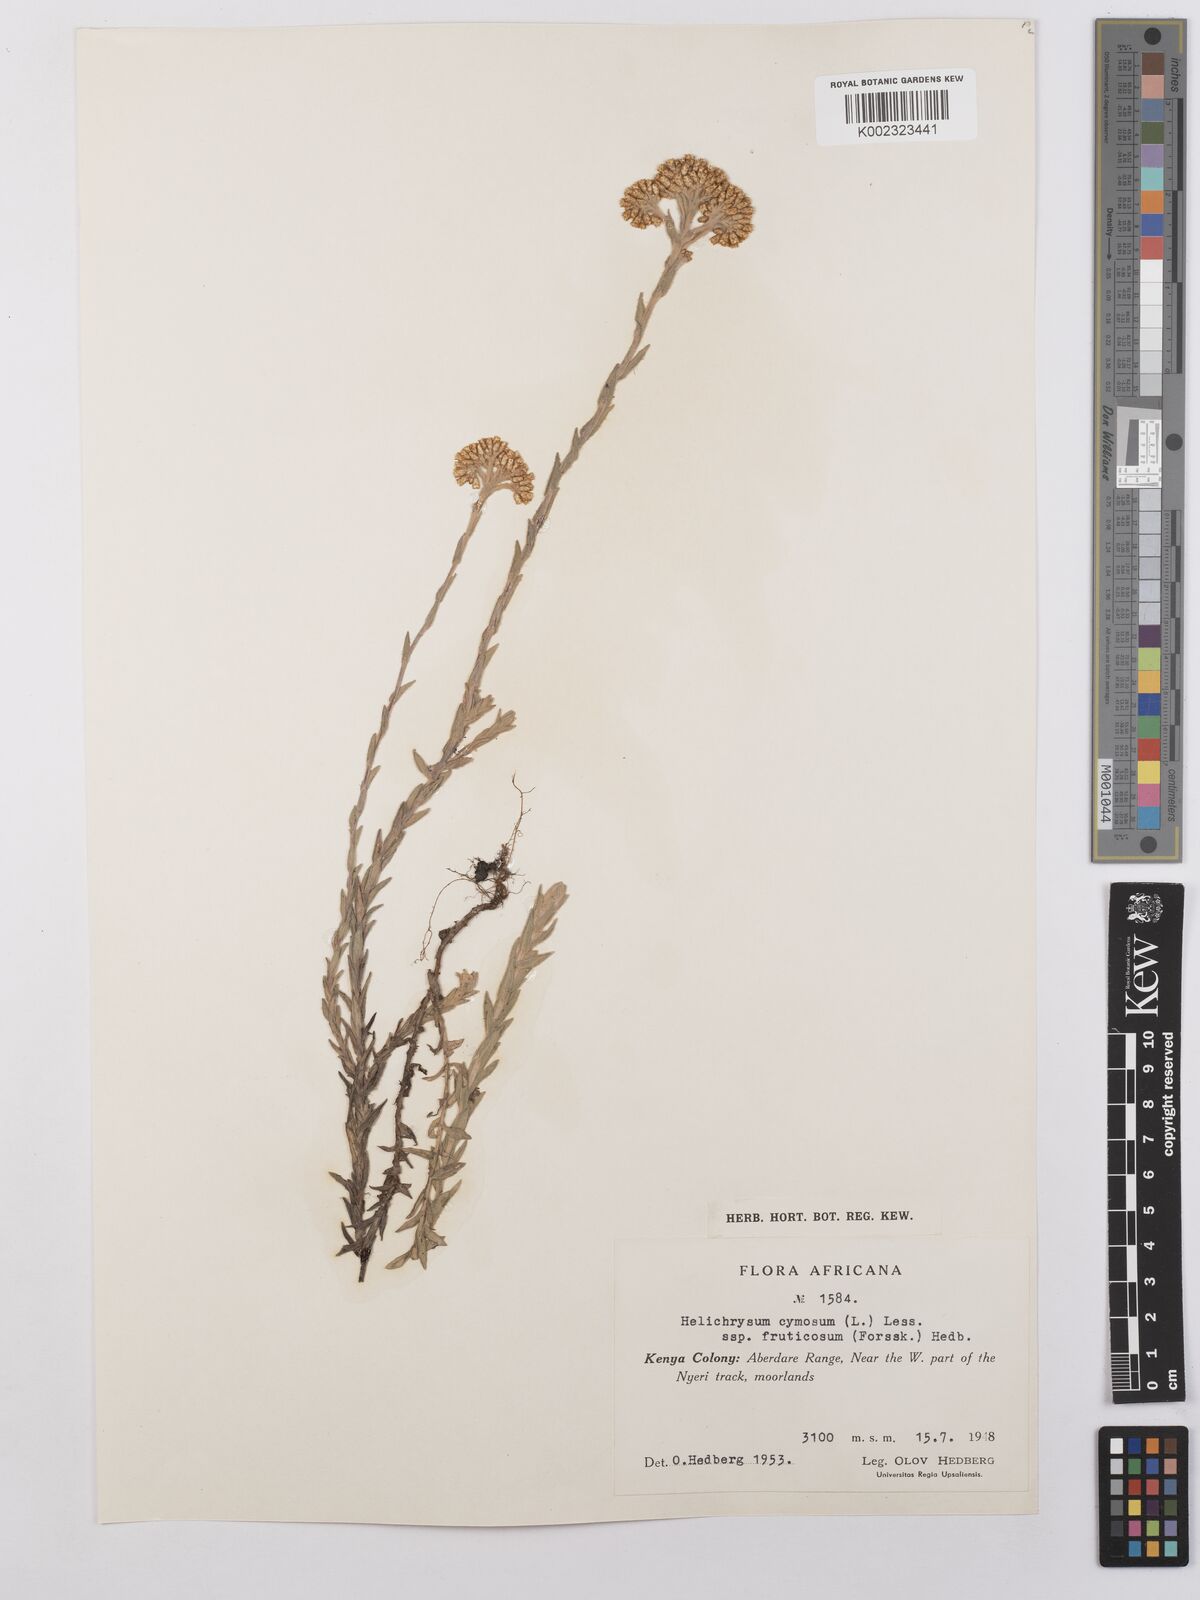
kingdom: Plantae
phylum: Tracheophyta
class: Magnoliopsida
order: Asterales
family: Asteraceae
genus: Helichrysum
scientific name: Helichrysum forskahlii
